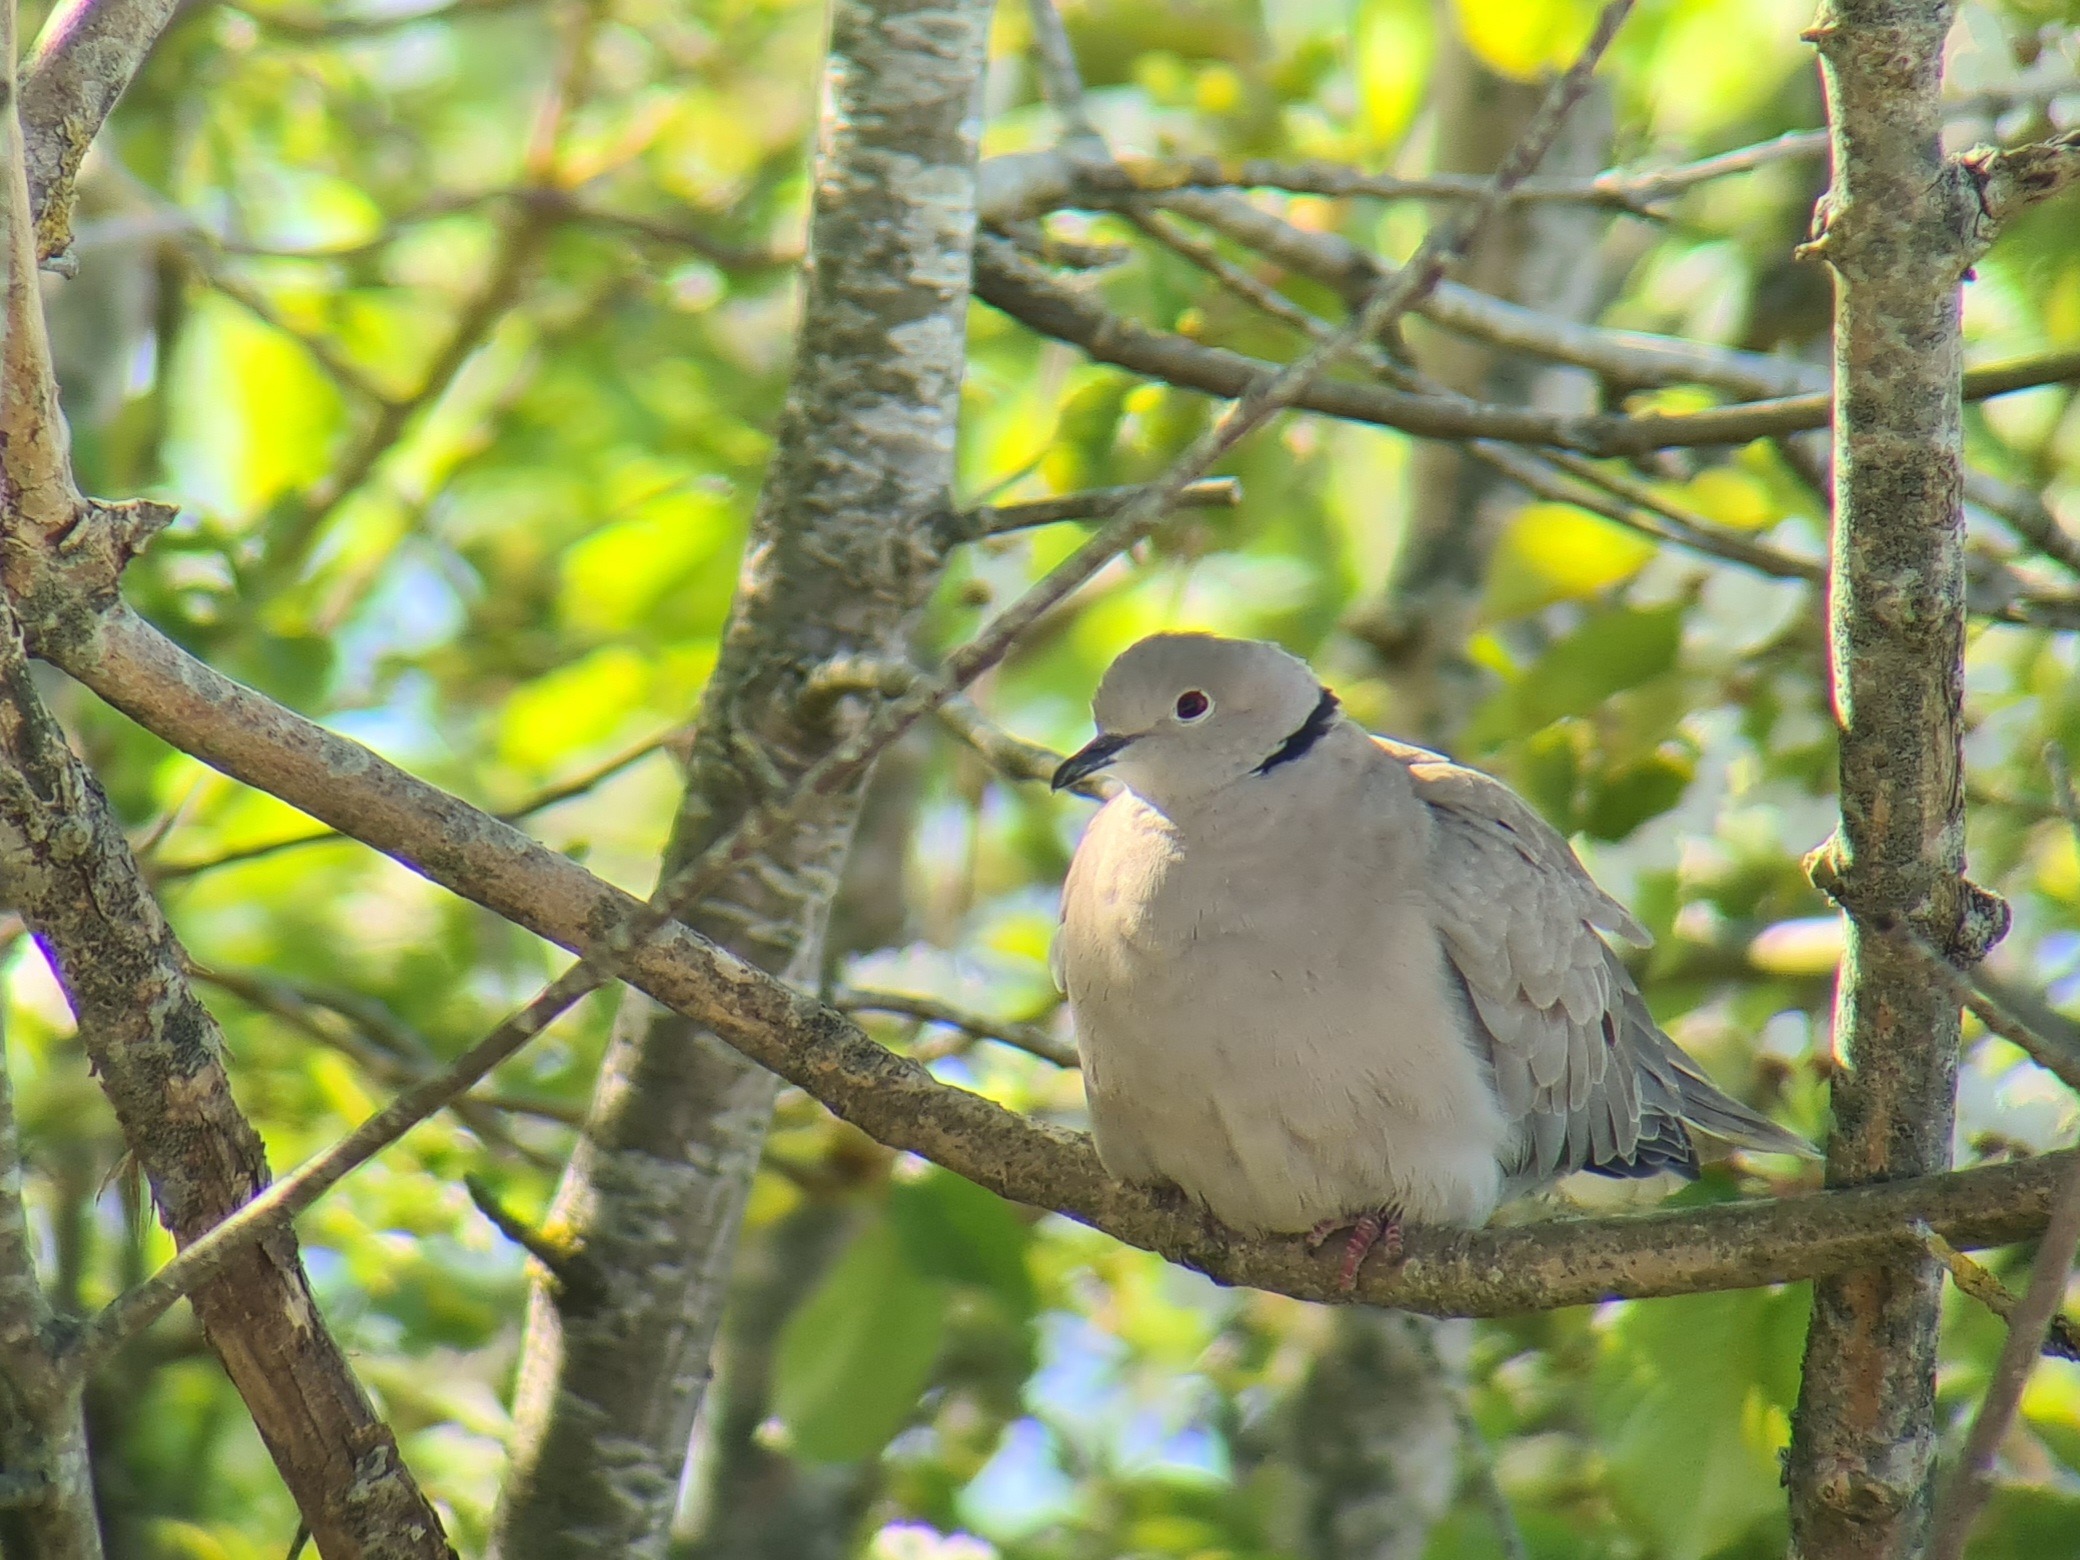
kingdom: Animalia
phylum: Chordata
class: Aves
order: Columbiformes
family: Columbidae
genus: Streptopelia
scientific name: Streptopelia decaocto
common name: Tyrkerdue
